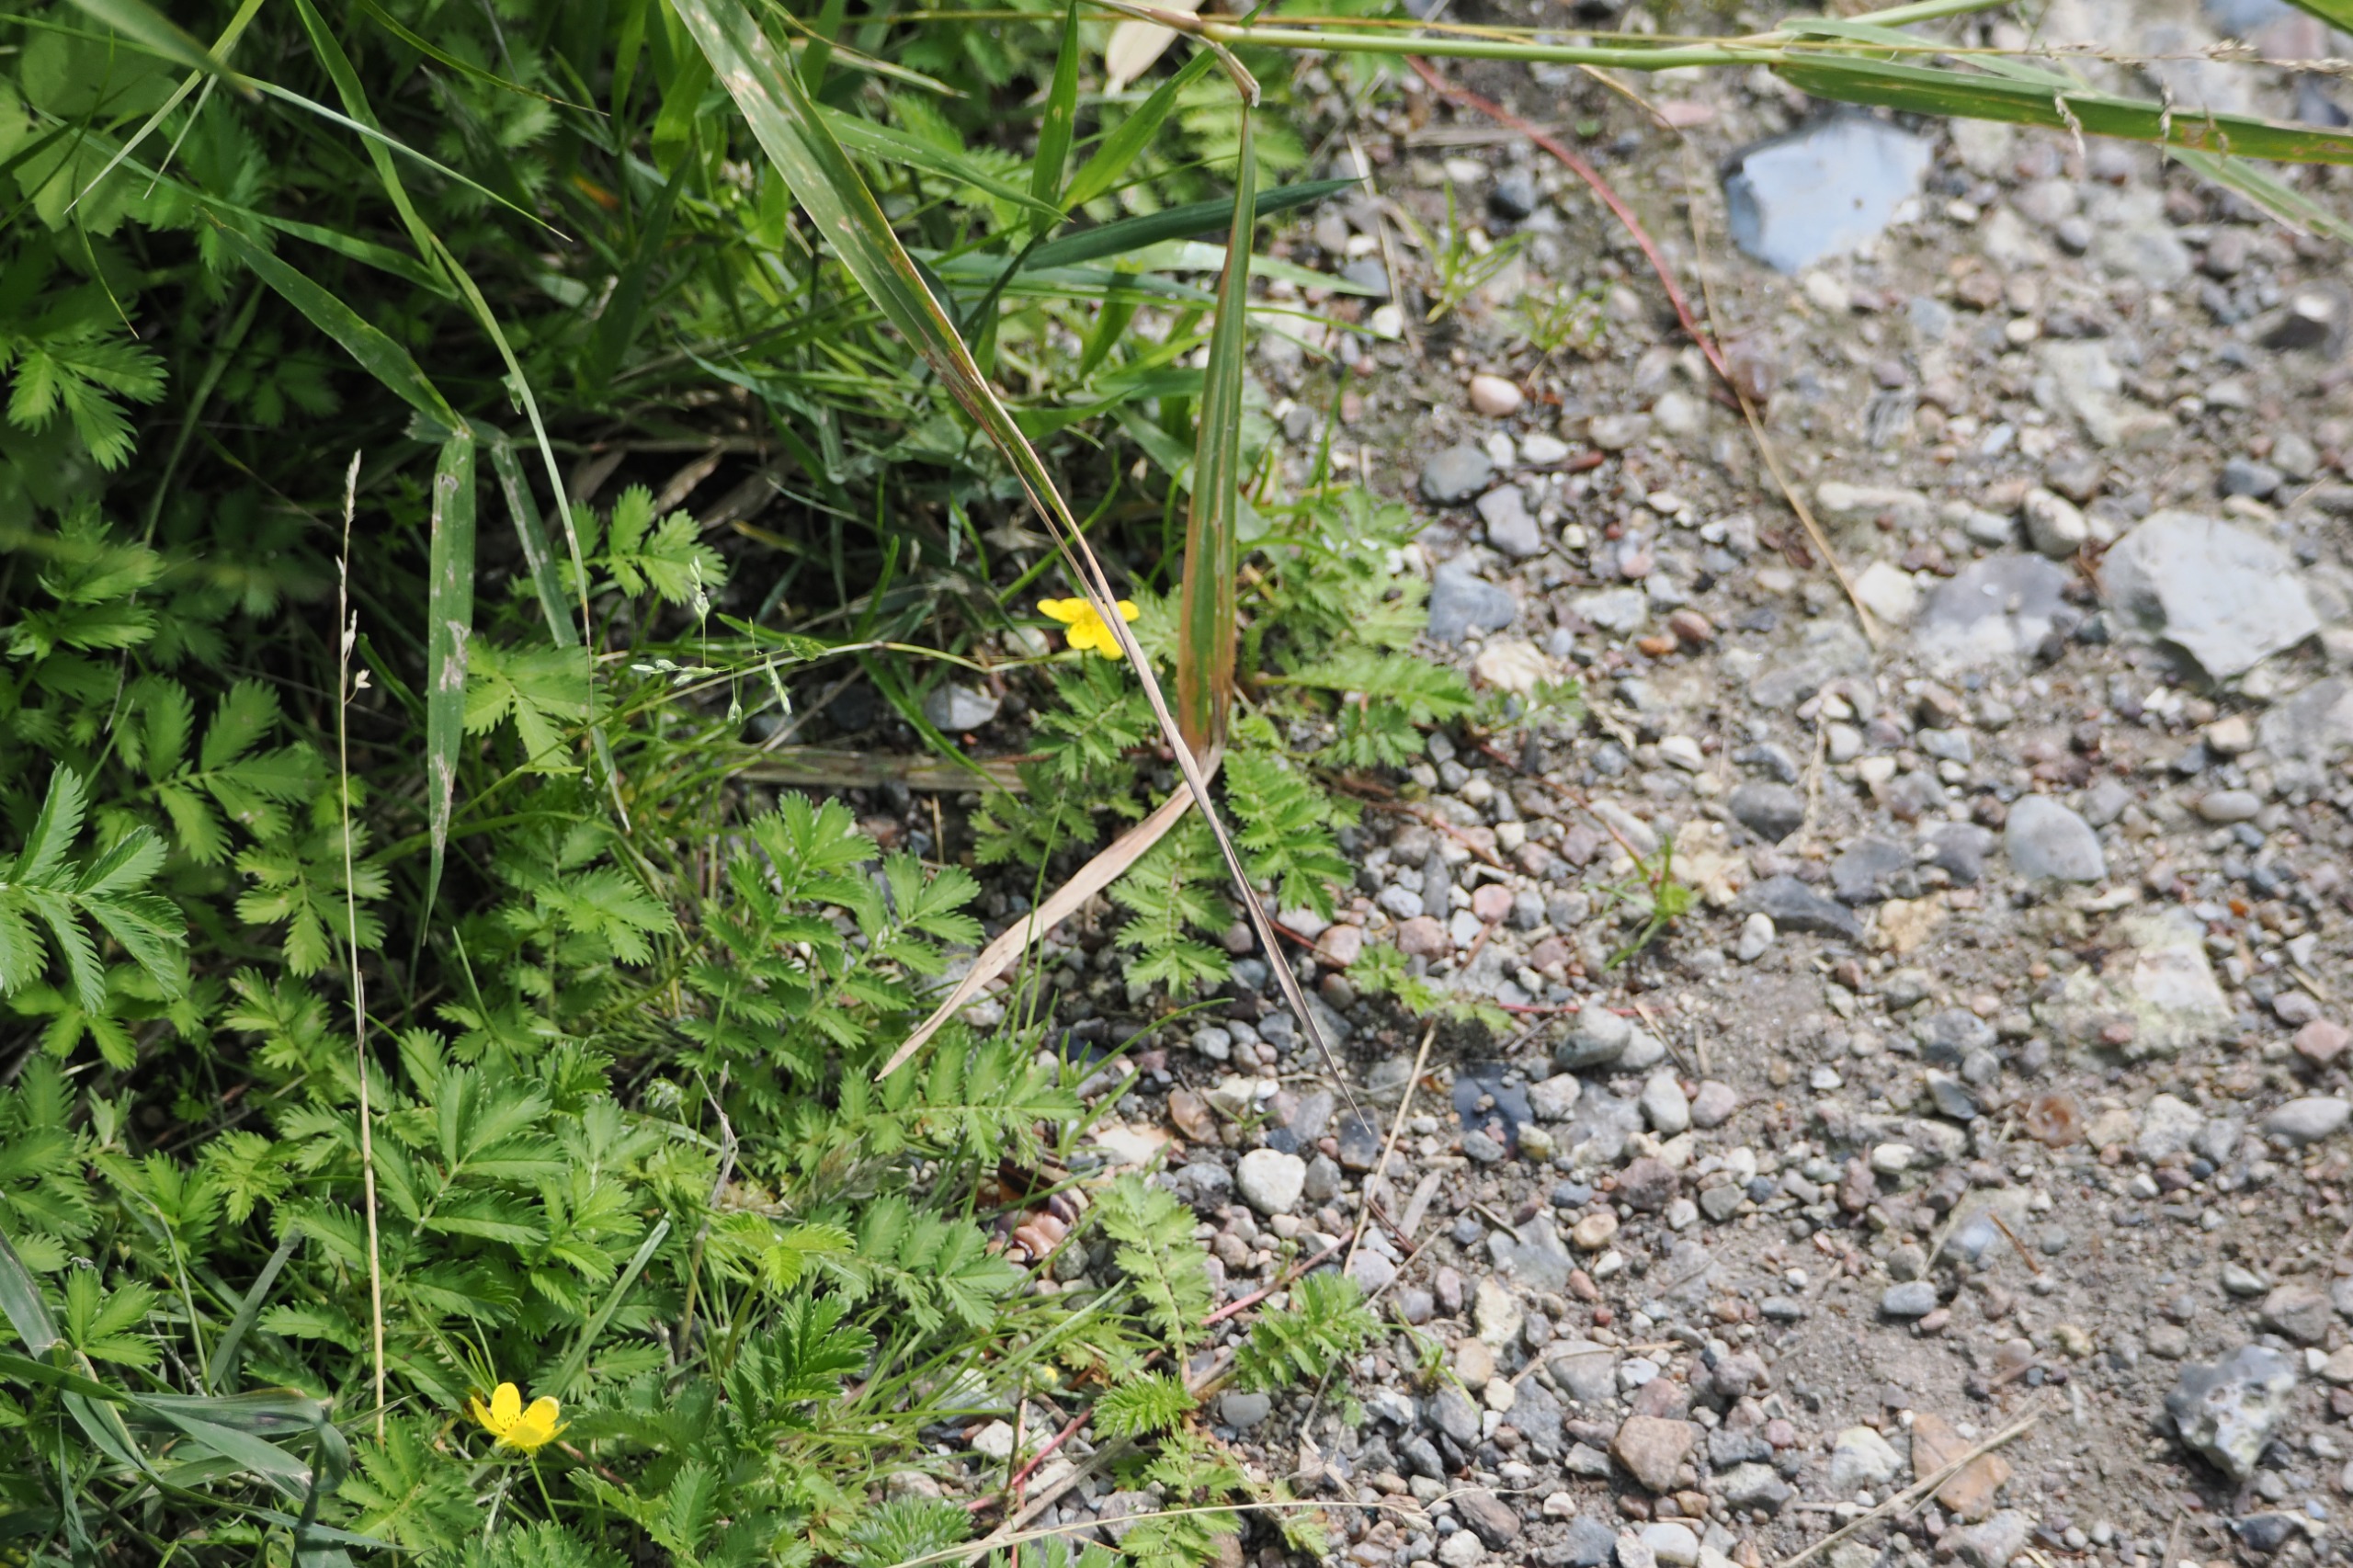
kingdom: Plantae
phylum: Tracheophyta
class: Magnoliopsida
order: Rosales
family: Rosaceae
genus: Argentina
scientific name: Argentina anserina
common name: Gåsepotentil
